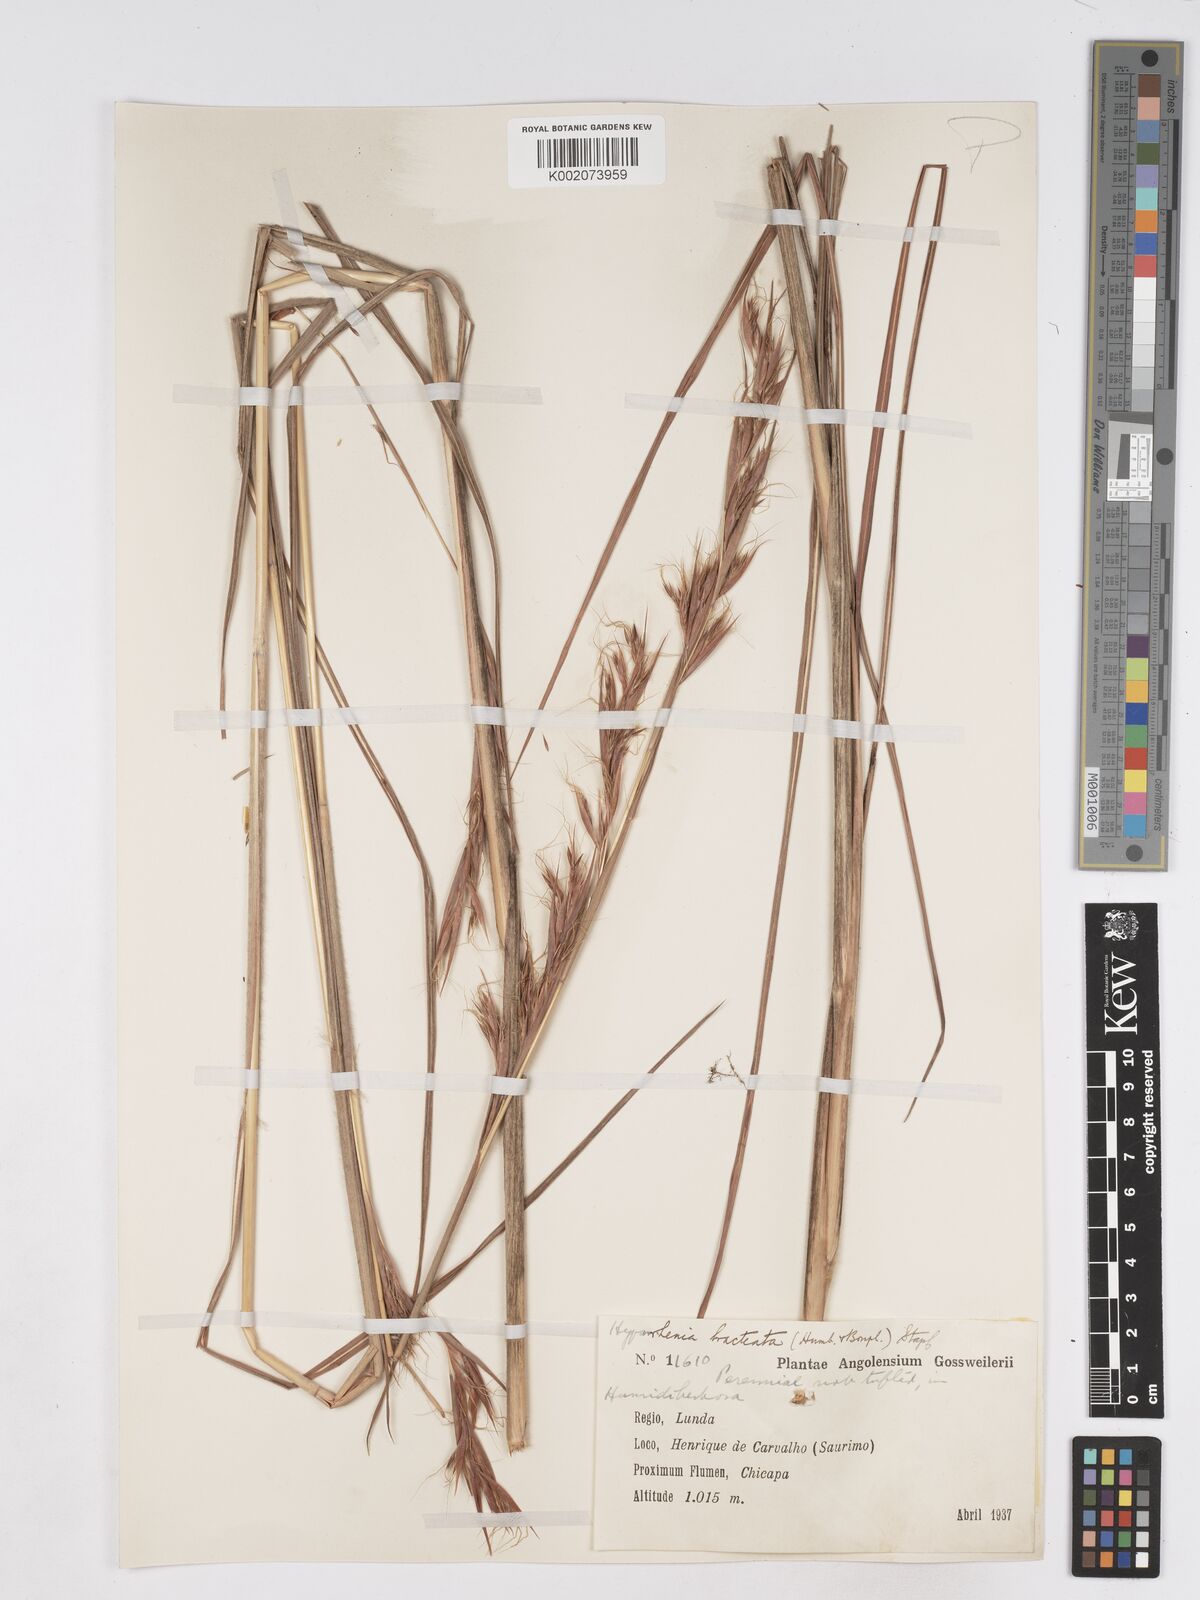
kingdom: Plantae
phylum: Tracheophyta
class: Liliopsida
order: Poales
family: Poaceae
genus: Hyparrhenia
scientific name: Hyparrhenia bracteata
